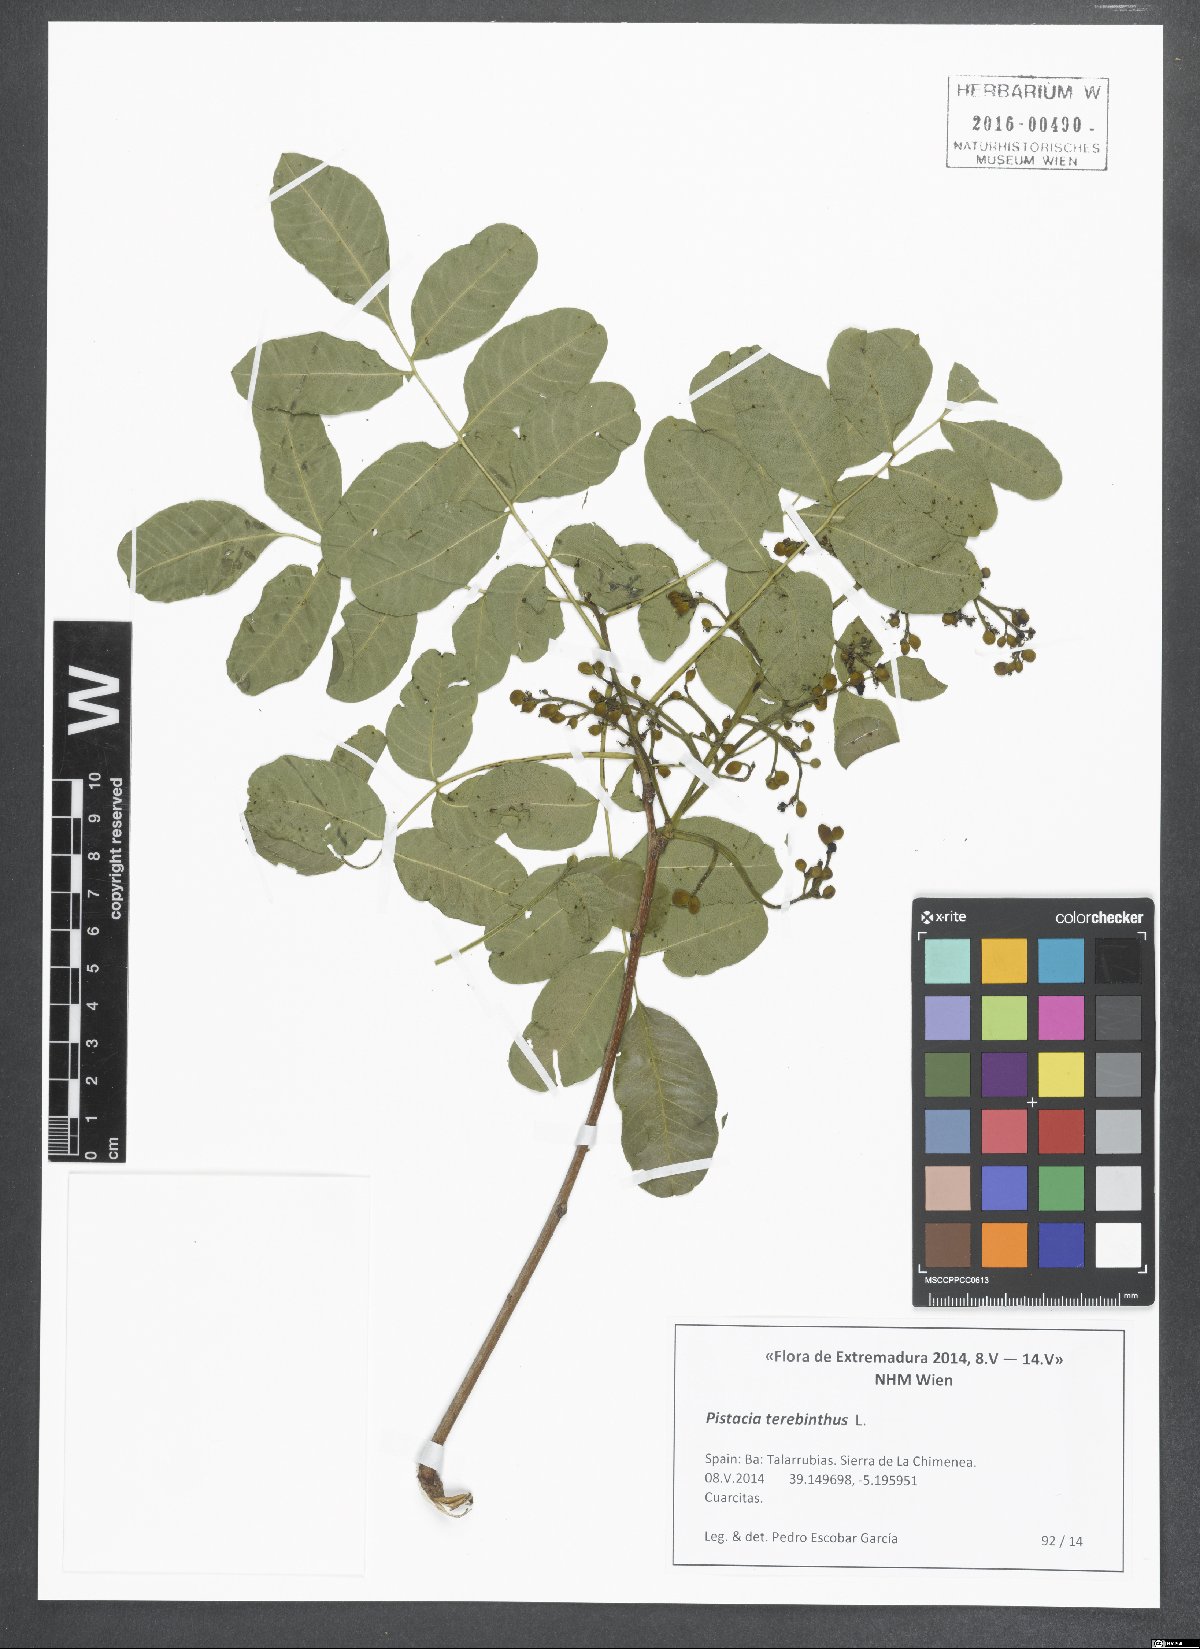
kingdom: Plantae
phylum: Tracheophyta
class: Magnoliopsida
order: Sapindales
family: Anacardiaceae
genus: Pistacia
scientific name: Pistacia terebinthus
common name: Terebinth
